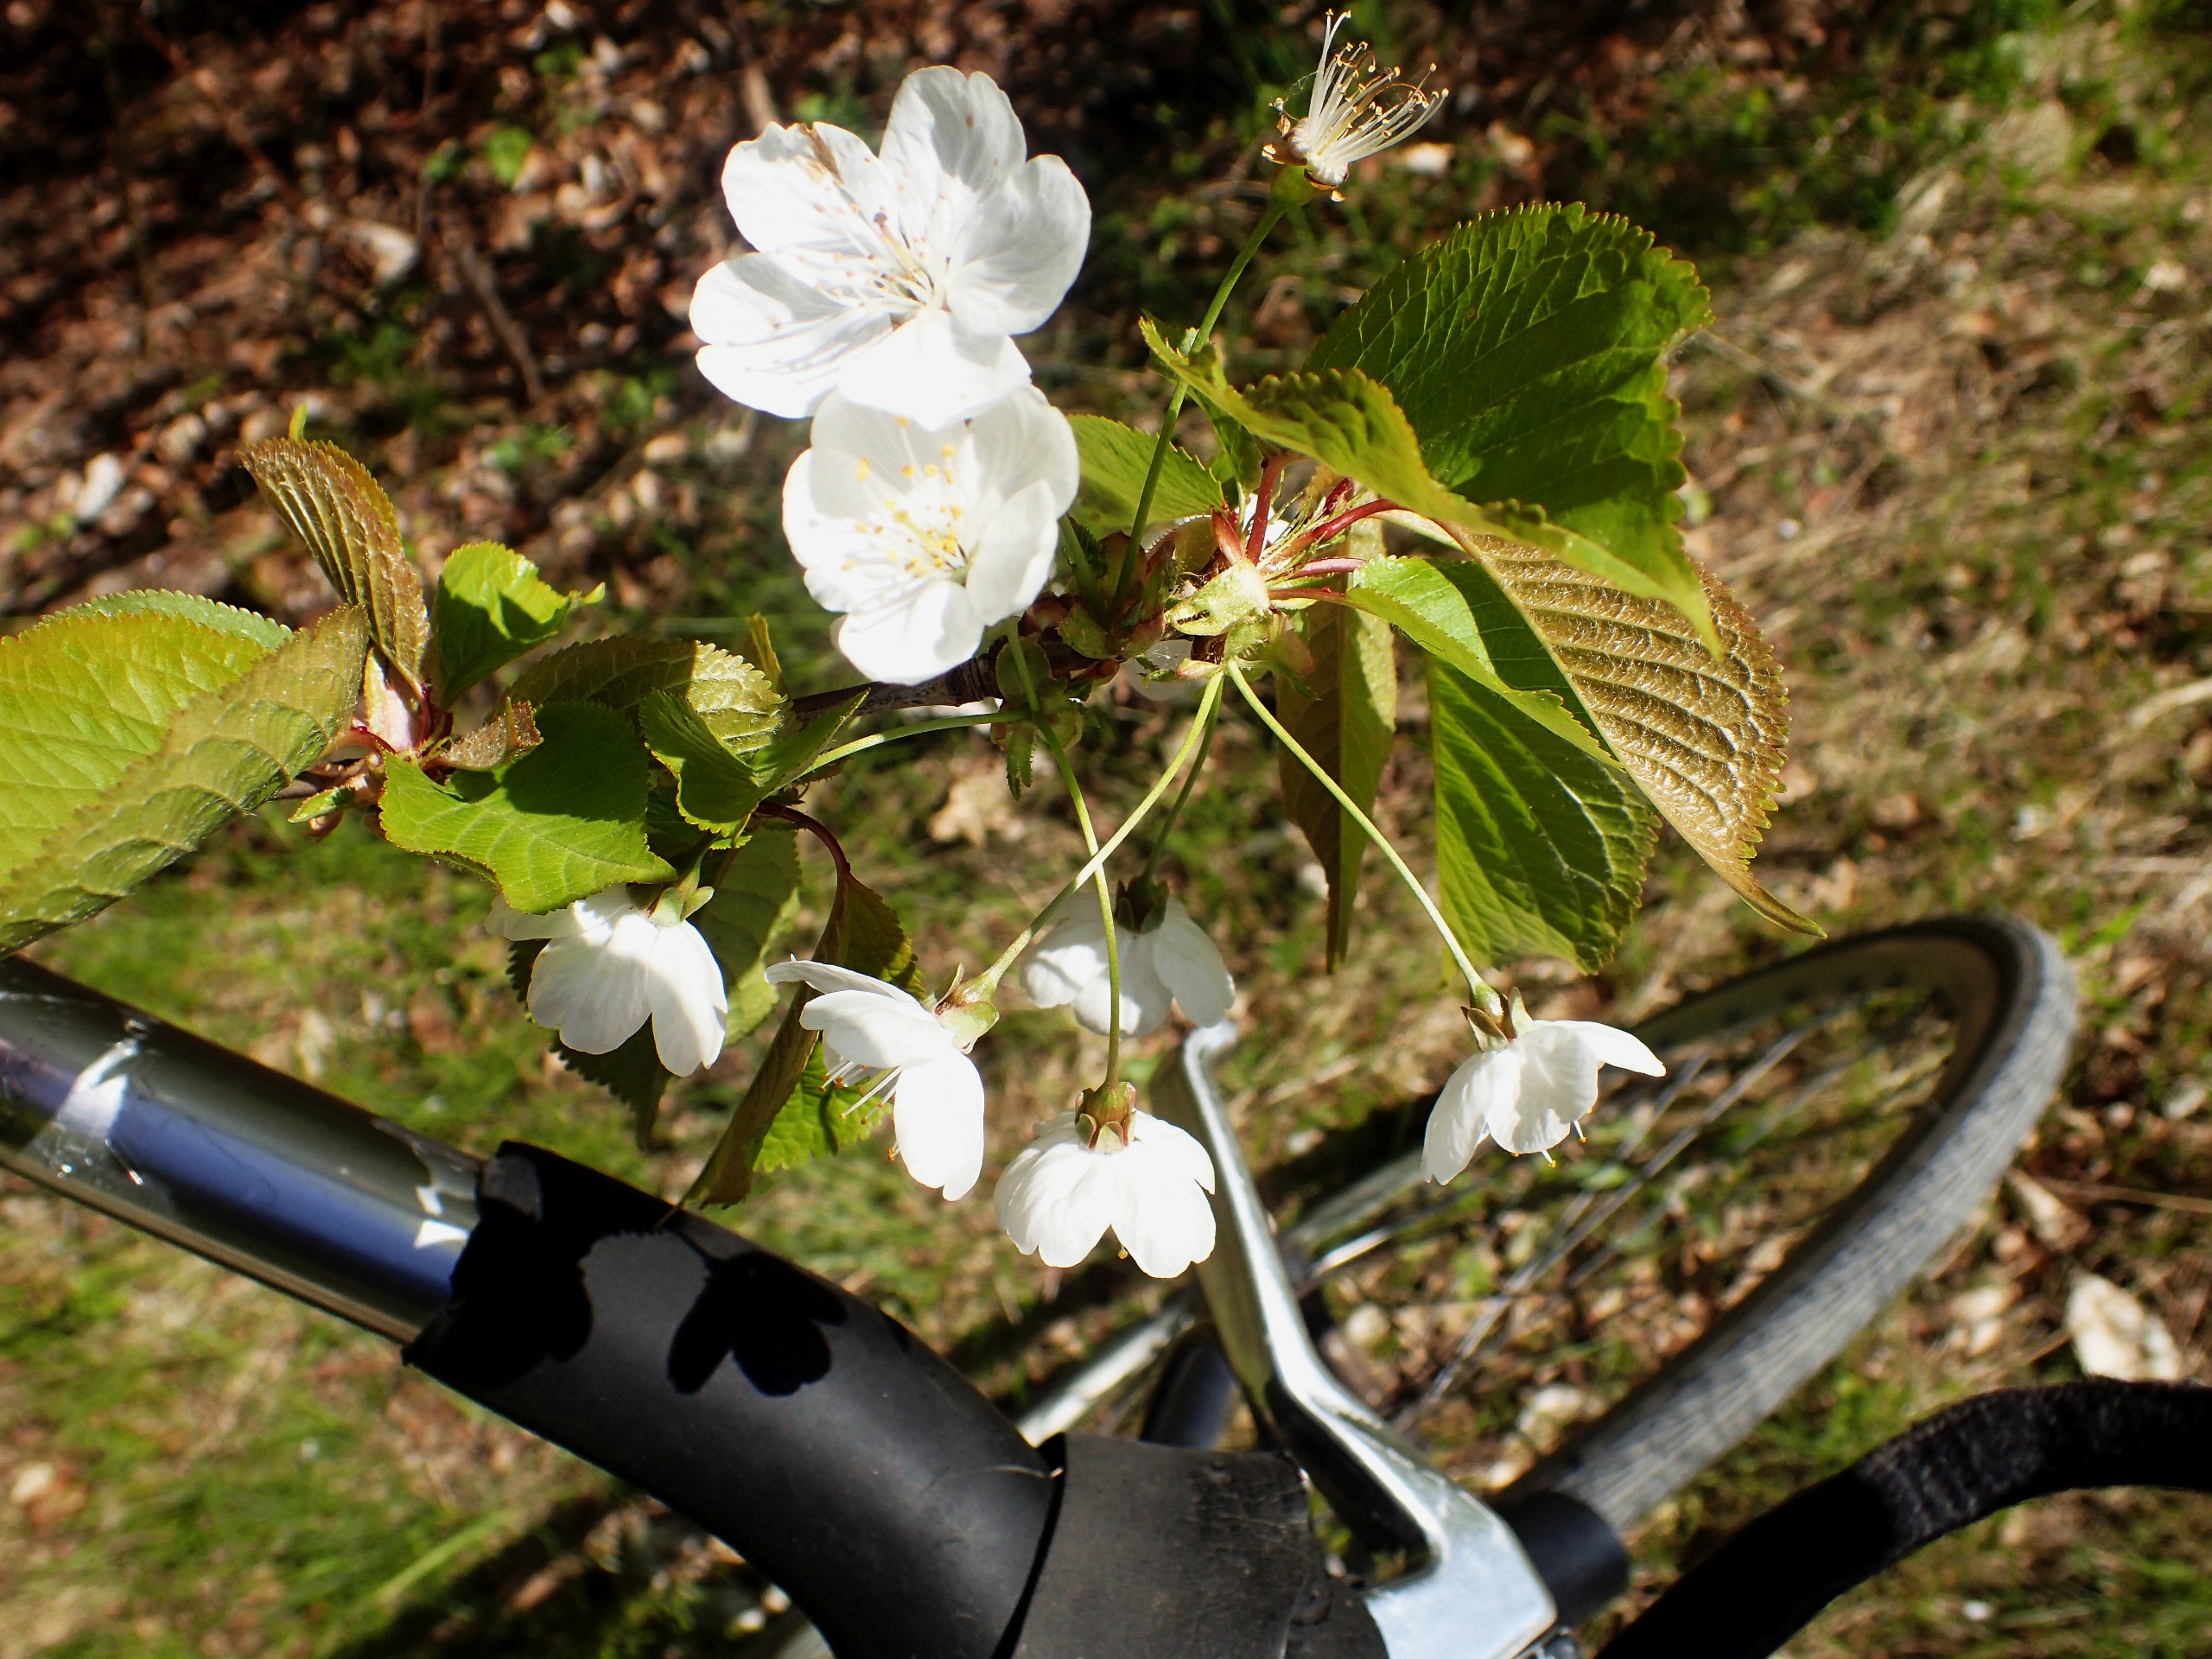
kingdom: Plantae
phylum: Tracheophyta
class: Magnoliopsida
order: Rosales
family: Rosaceae
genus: Prunus
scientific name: Prunus avium
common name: Fugle-kirsebær
